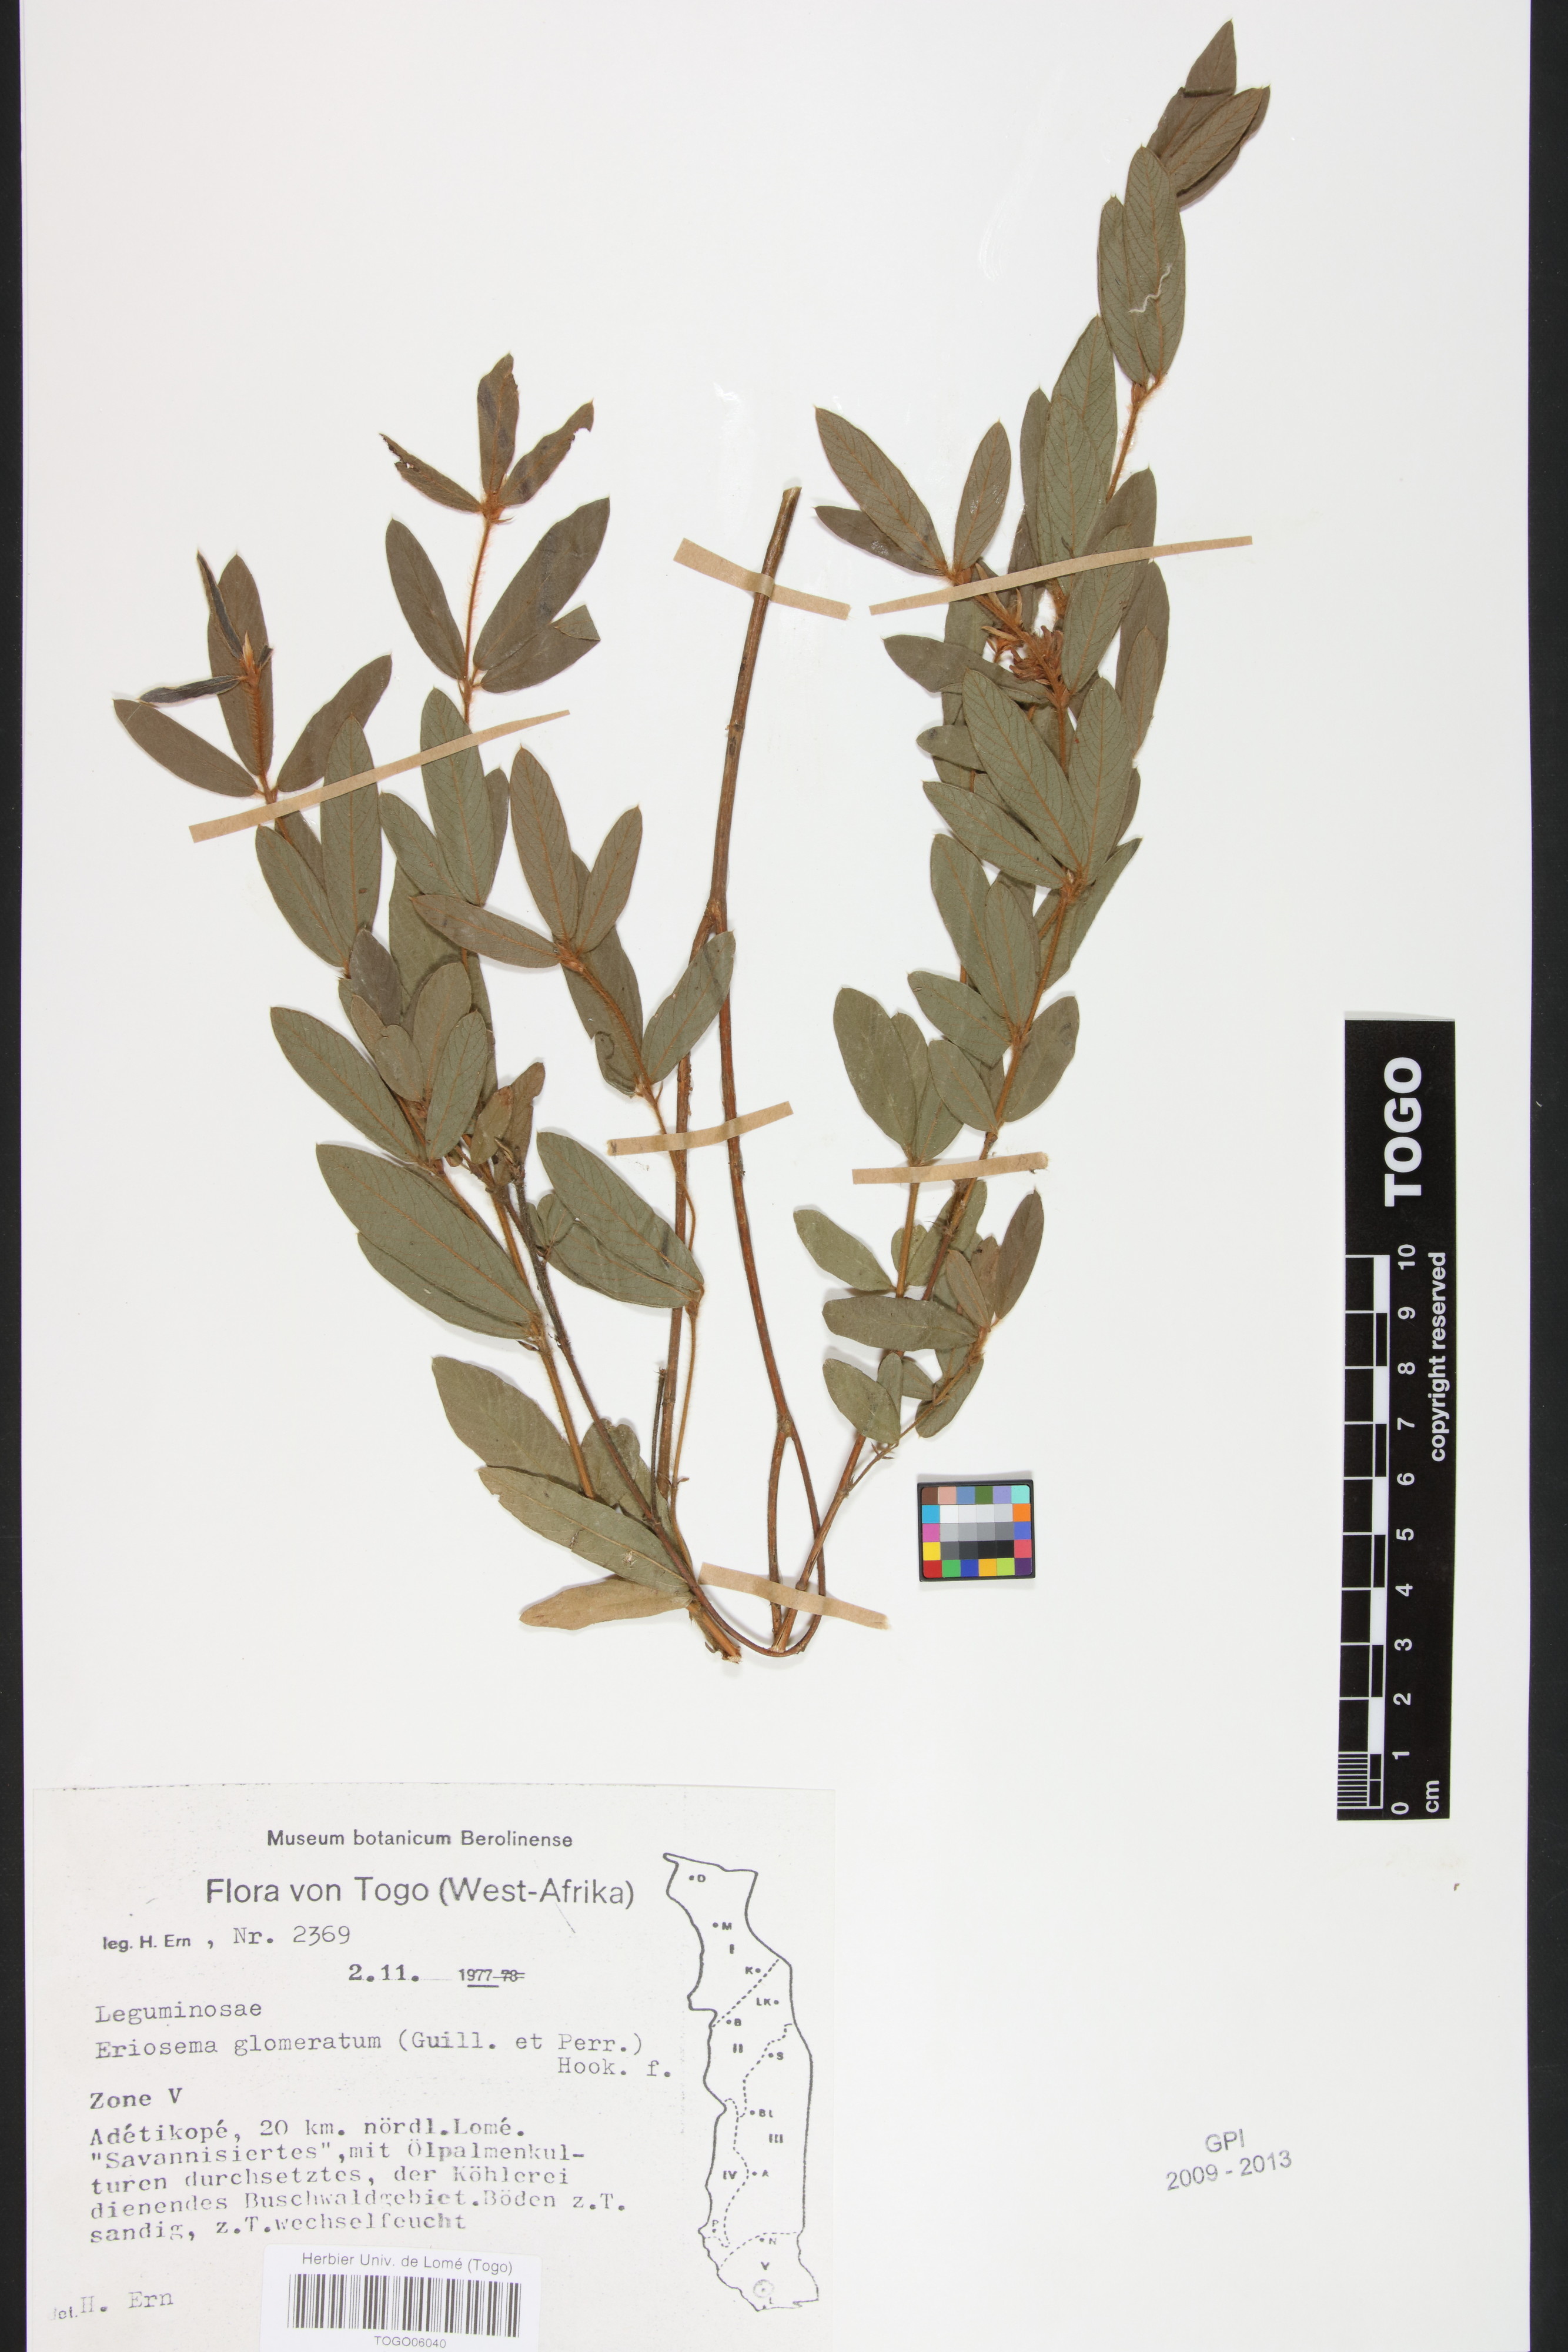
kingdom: Plantae
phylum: Tracheophyta
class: Magnoliopsida
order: Fabales
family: Fabaceae
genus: Eriosema
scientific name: Eriosema glomeratum
